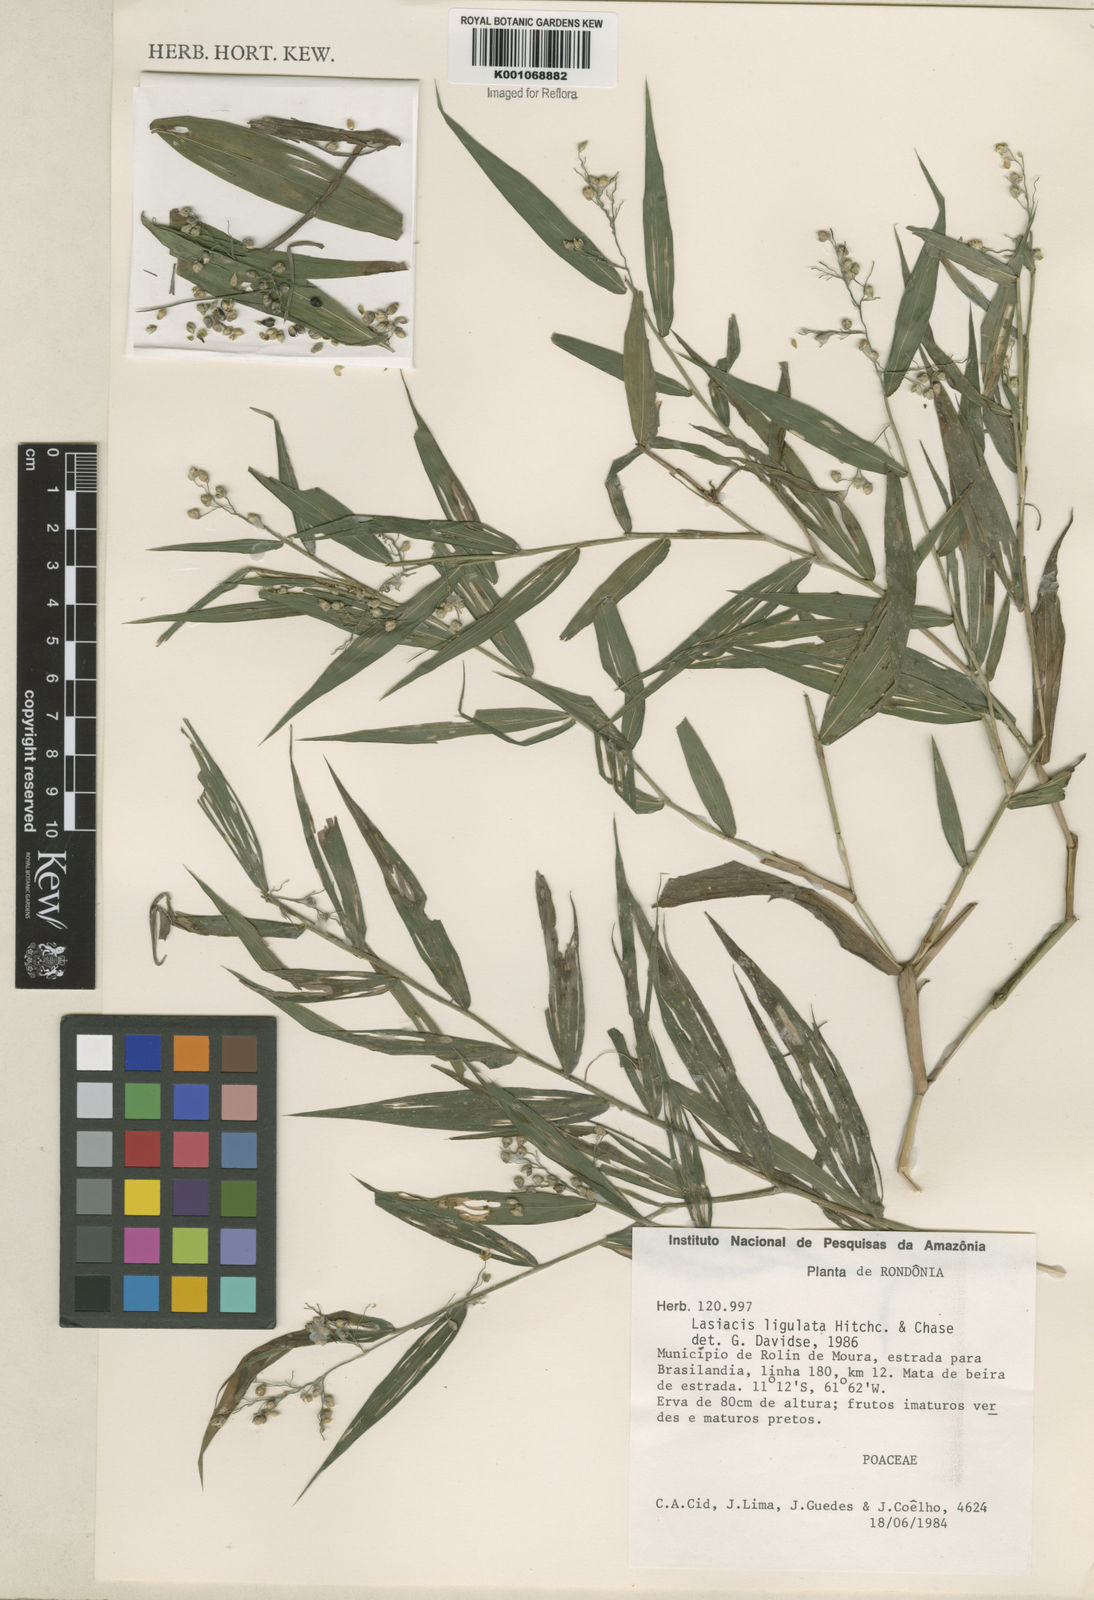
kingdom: Plantae
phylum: Tracheophyta
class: Liliopsida
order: Poales
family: Poaceae
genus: Lasiacis
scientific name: Lasiacis ligulata
